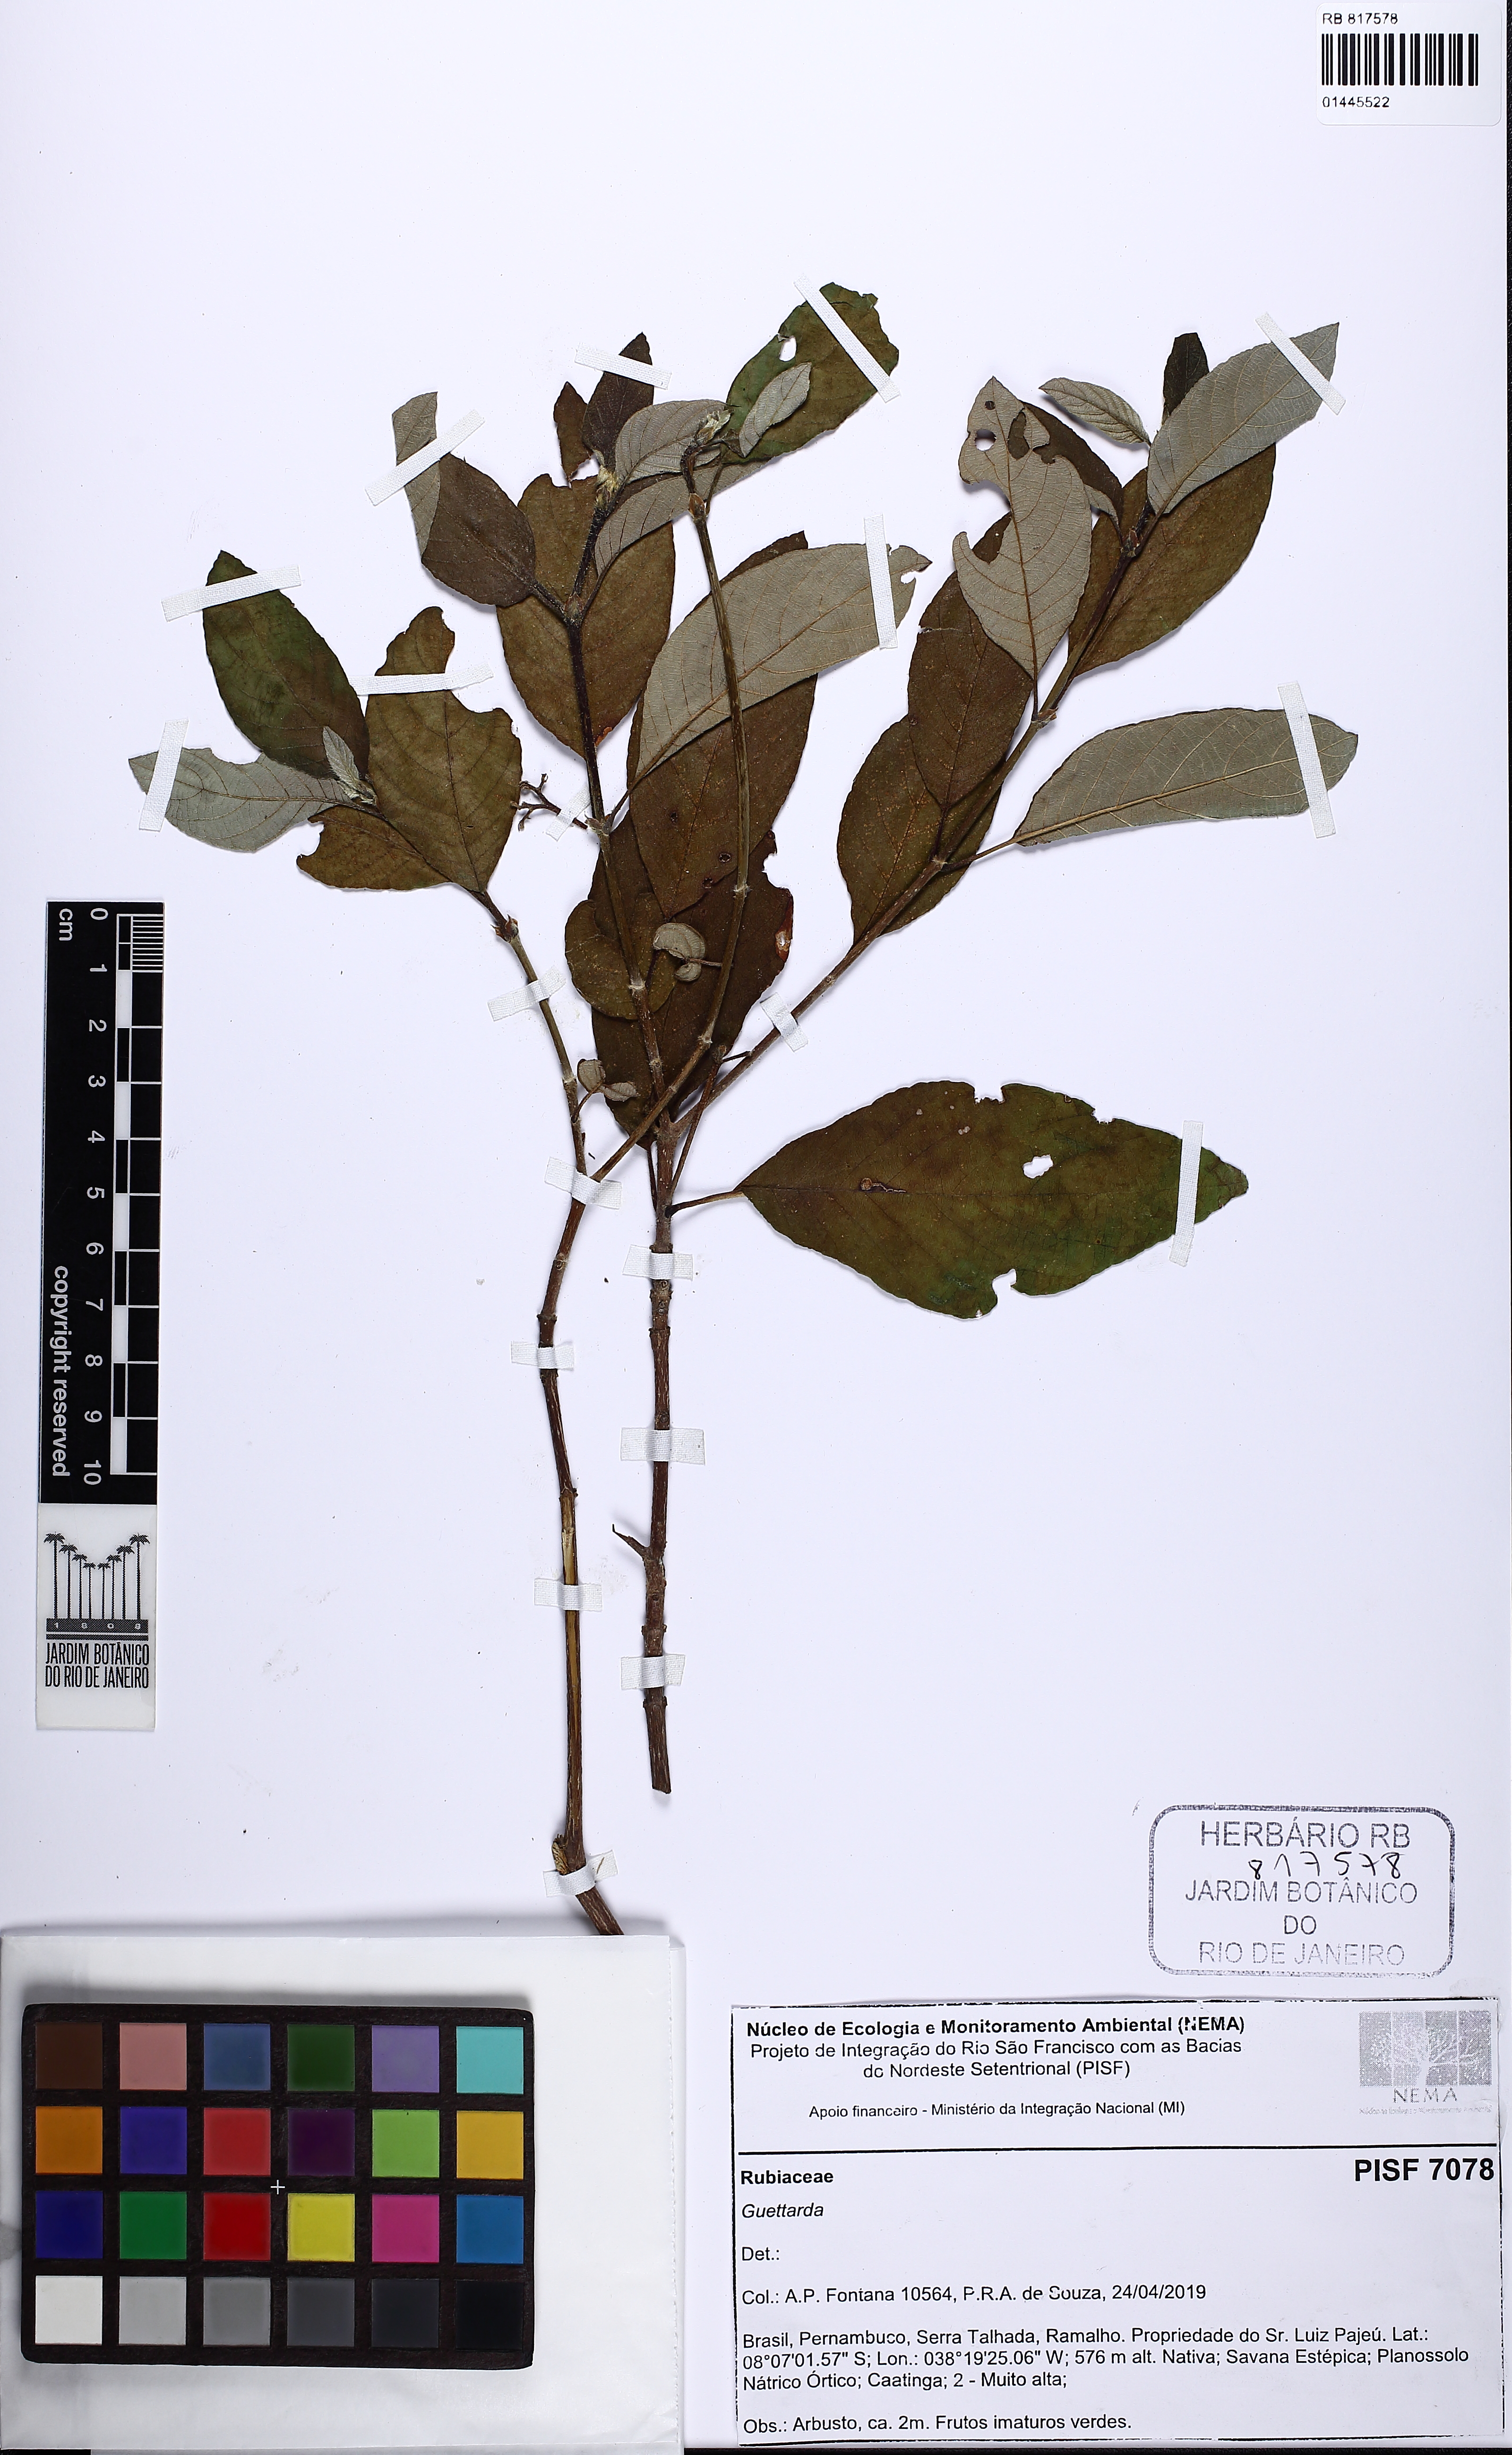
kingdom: Plantae
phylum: Tracheophyta
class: Magnoliopsida
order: Gentianales
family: Rubiaceae
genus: Guettarda
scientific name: Guettarda
